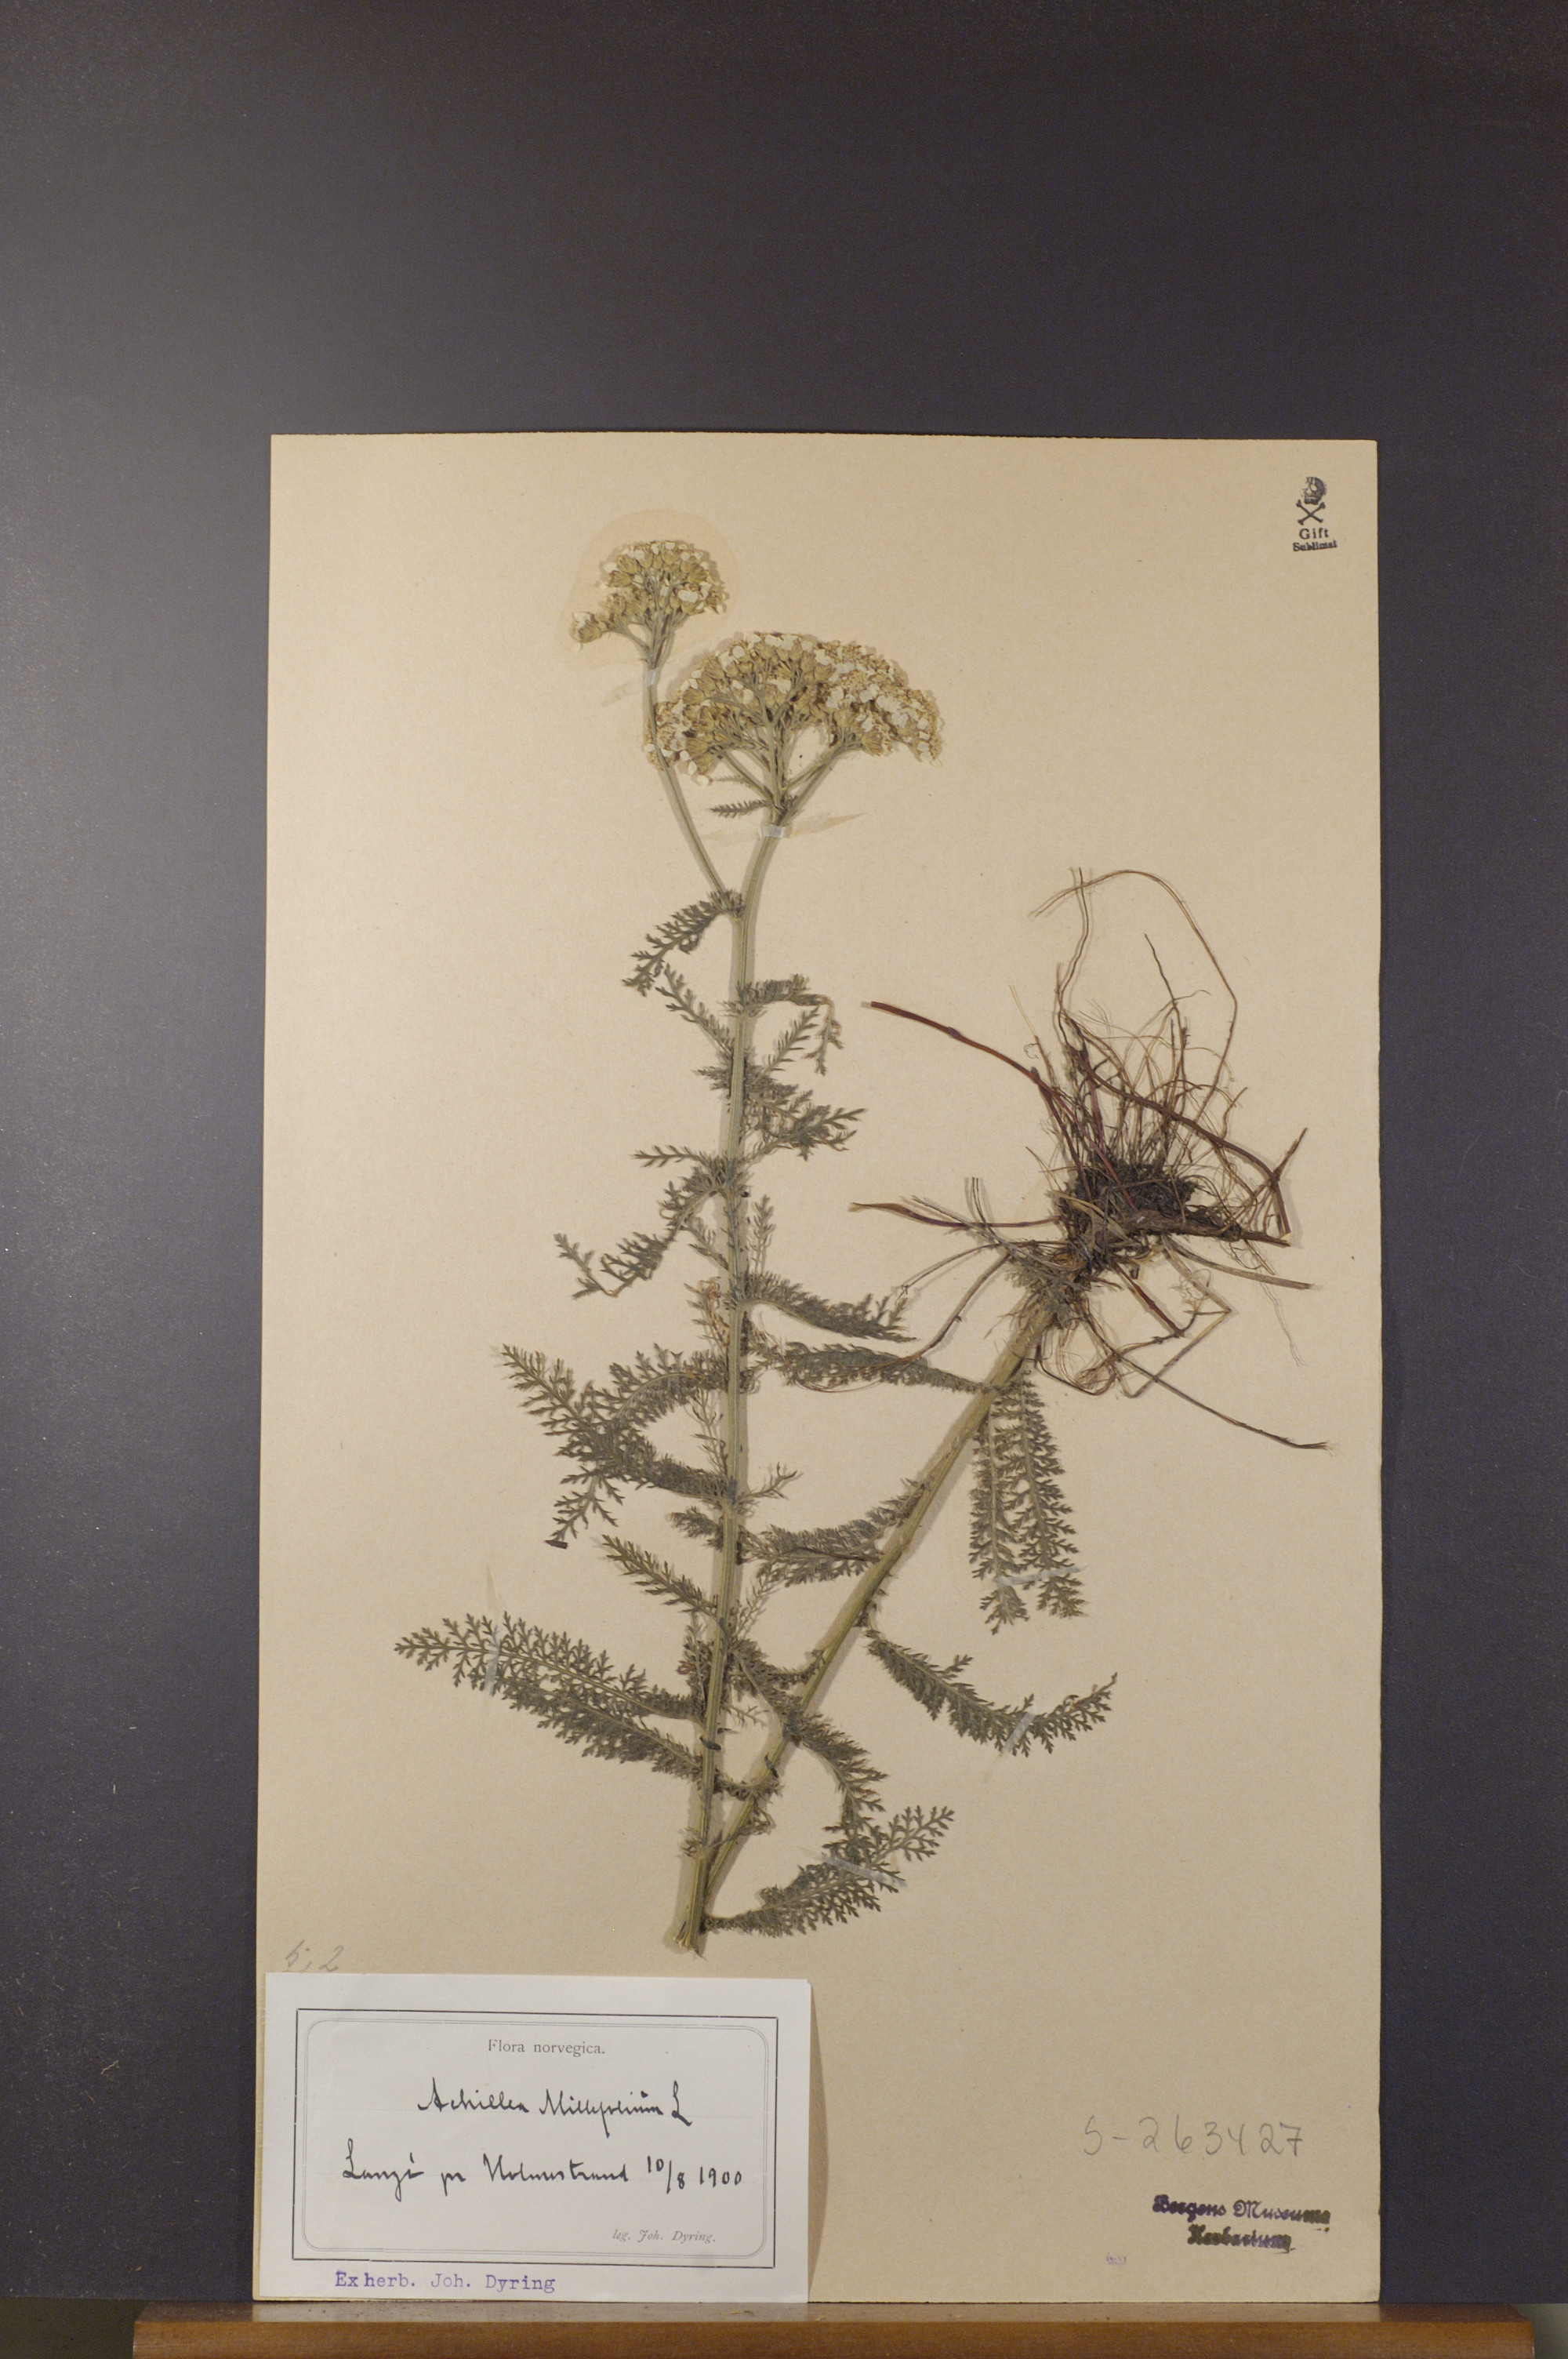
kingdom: Plantae
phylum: Tracheophyta
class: Magnoliopsida
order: Asterales
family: Asteraceae
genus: Achillea
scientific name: Achillea millefolium
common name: Yarrow
